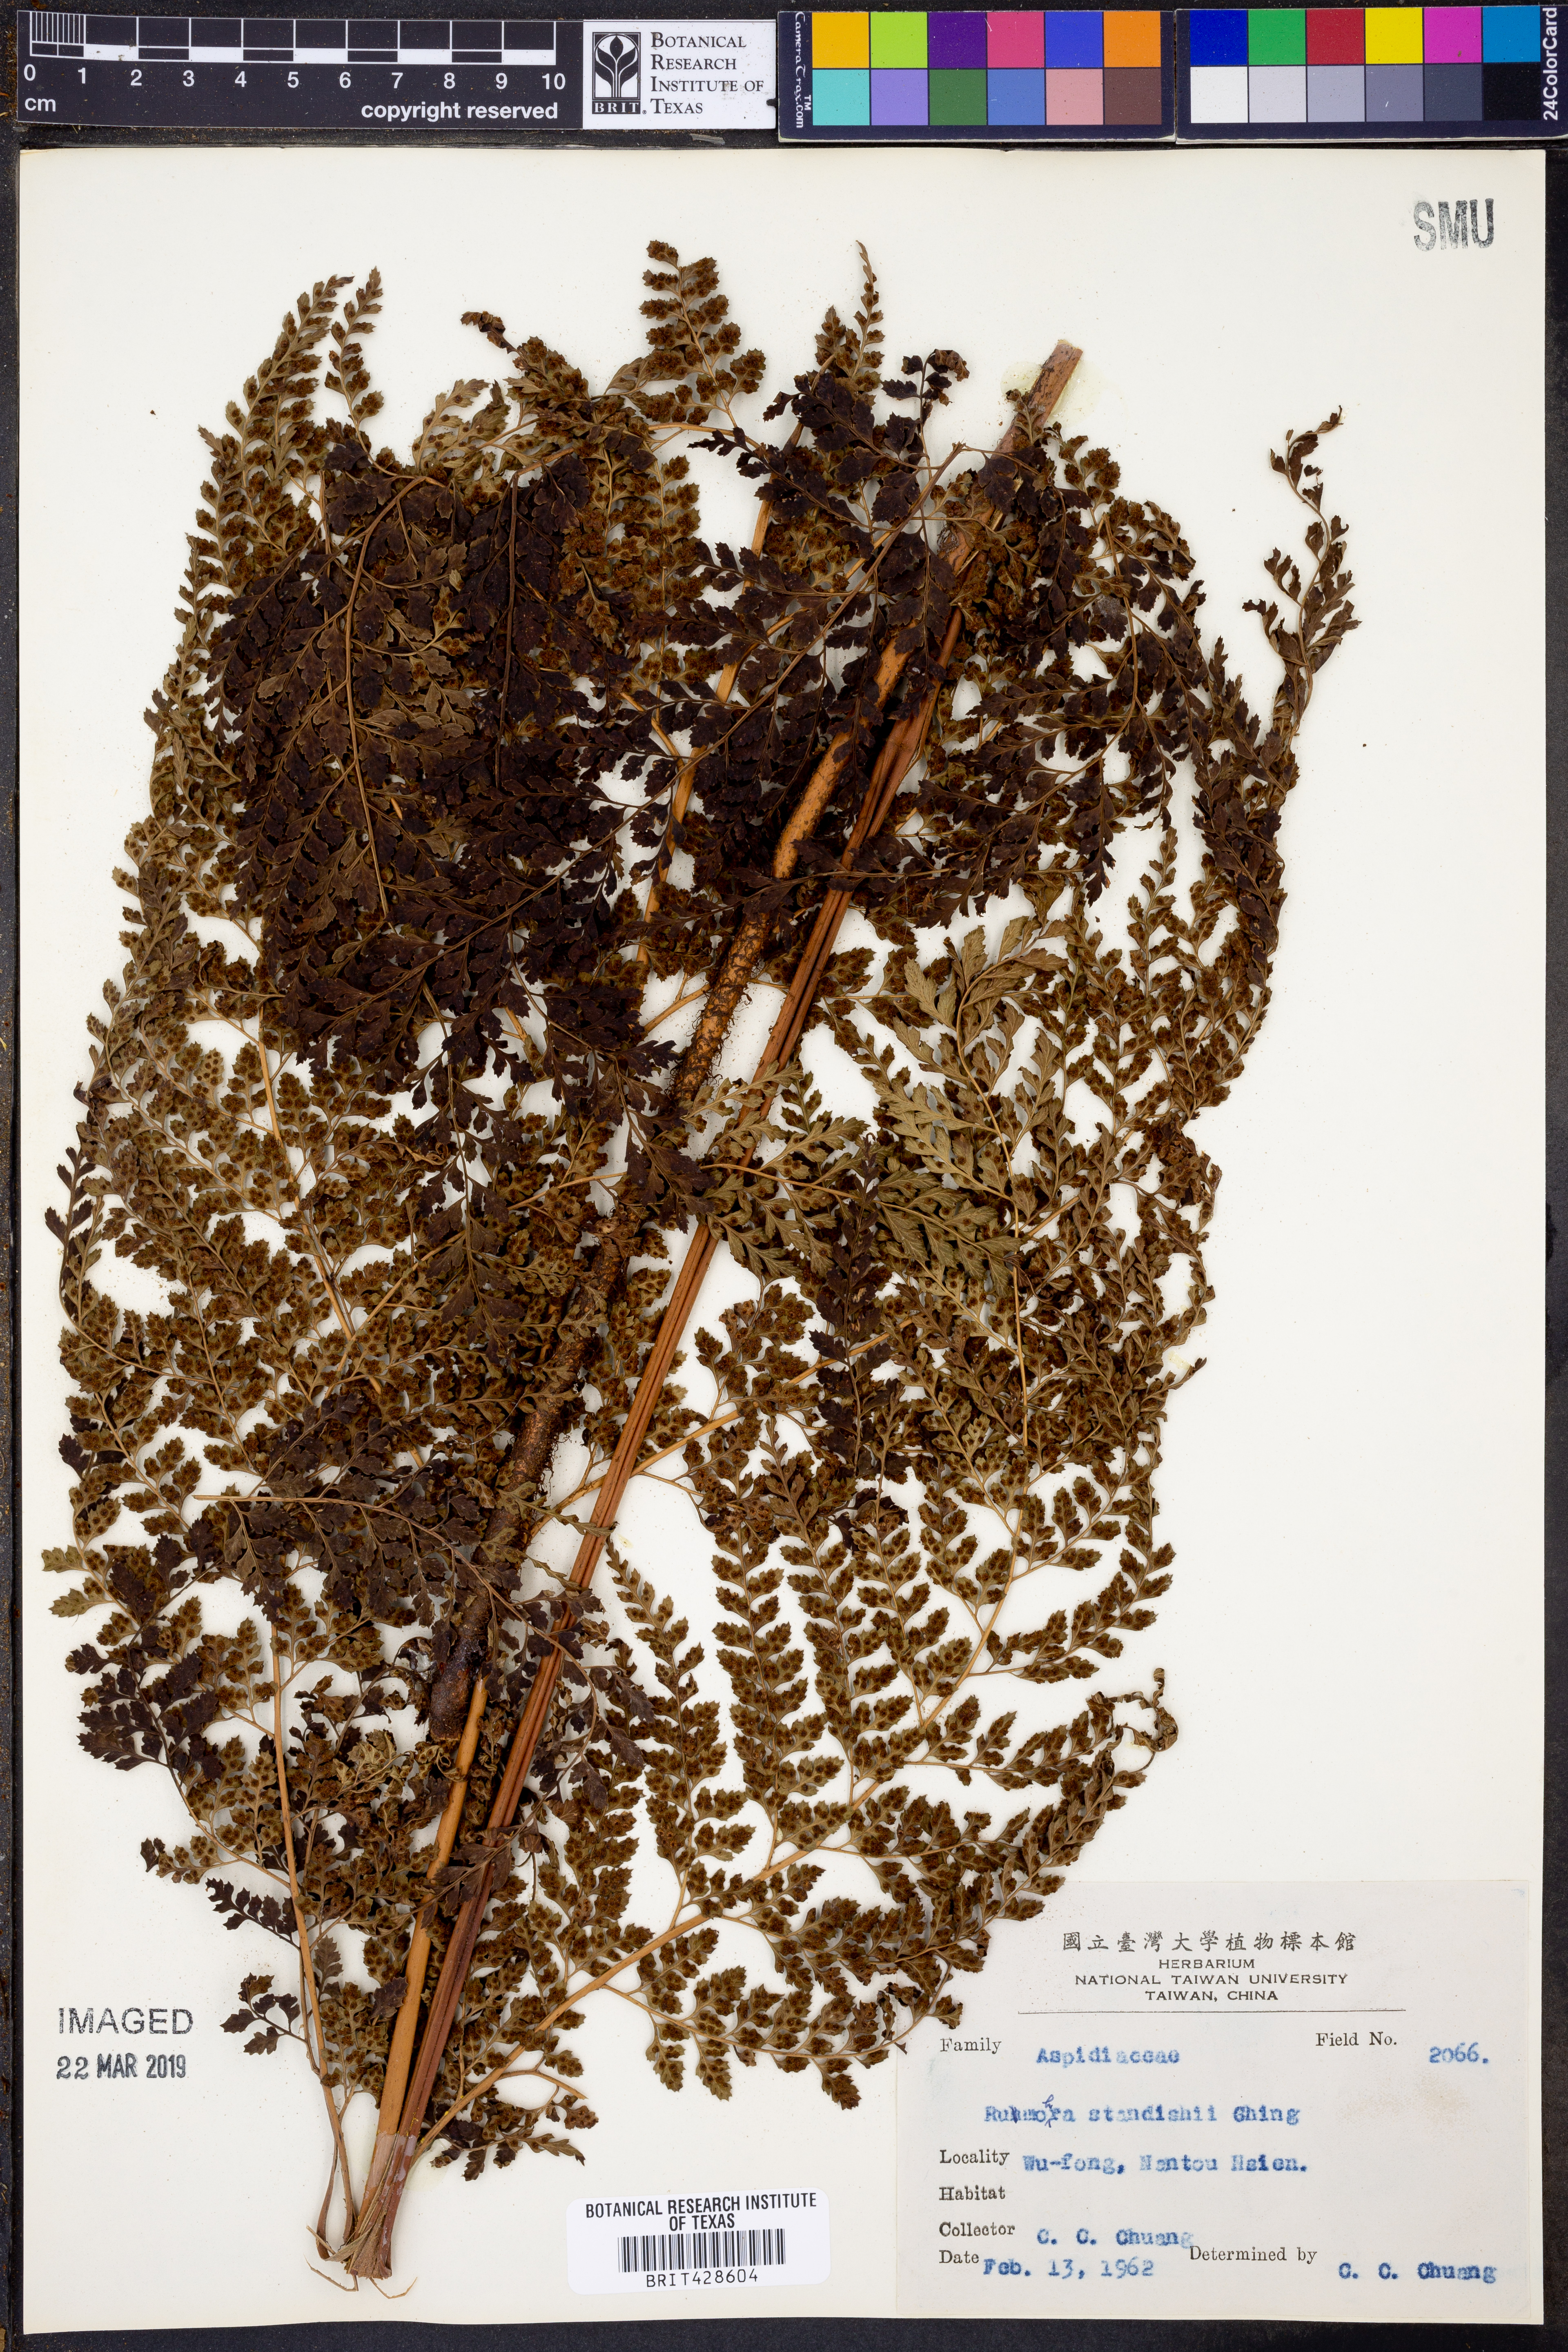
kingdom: Plantae
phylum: Tracheophyta
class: Polypodiopsida
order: Polypodiales
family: Dryopteridaceae
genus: Arachniodes
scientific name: Arachniodes standishii
